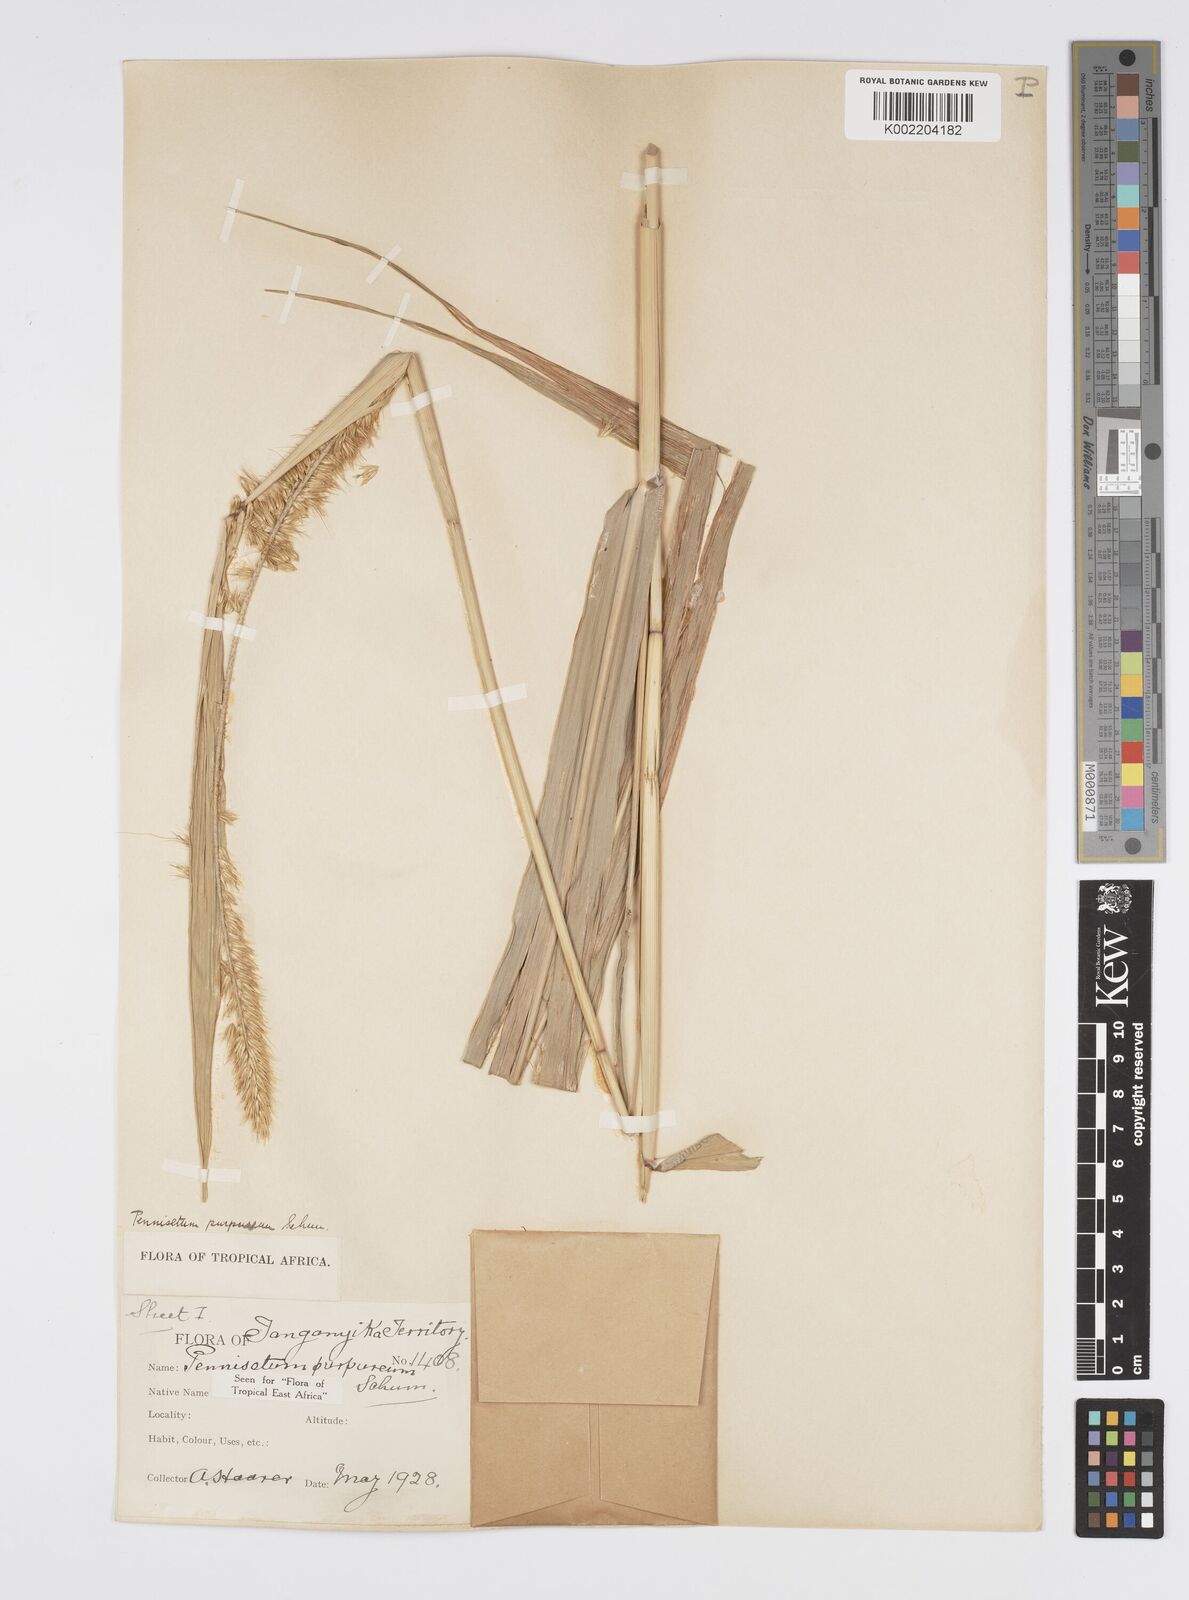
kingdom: Plantae
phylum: Tracheophyta
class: Liliopsida
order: Poales
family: Poaceae
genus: Cenchrus
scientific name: Cenchrus purpureus
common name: Elephant grass
